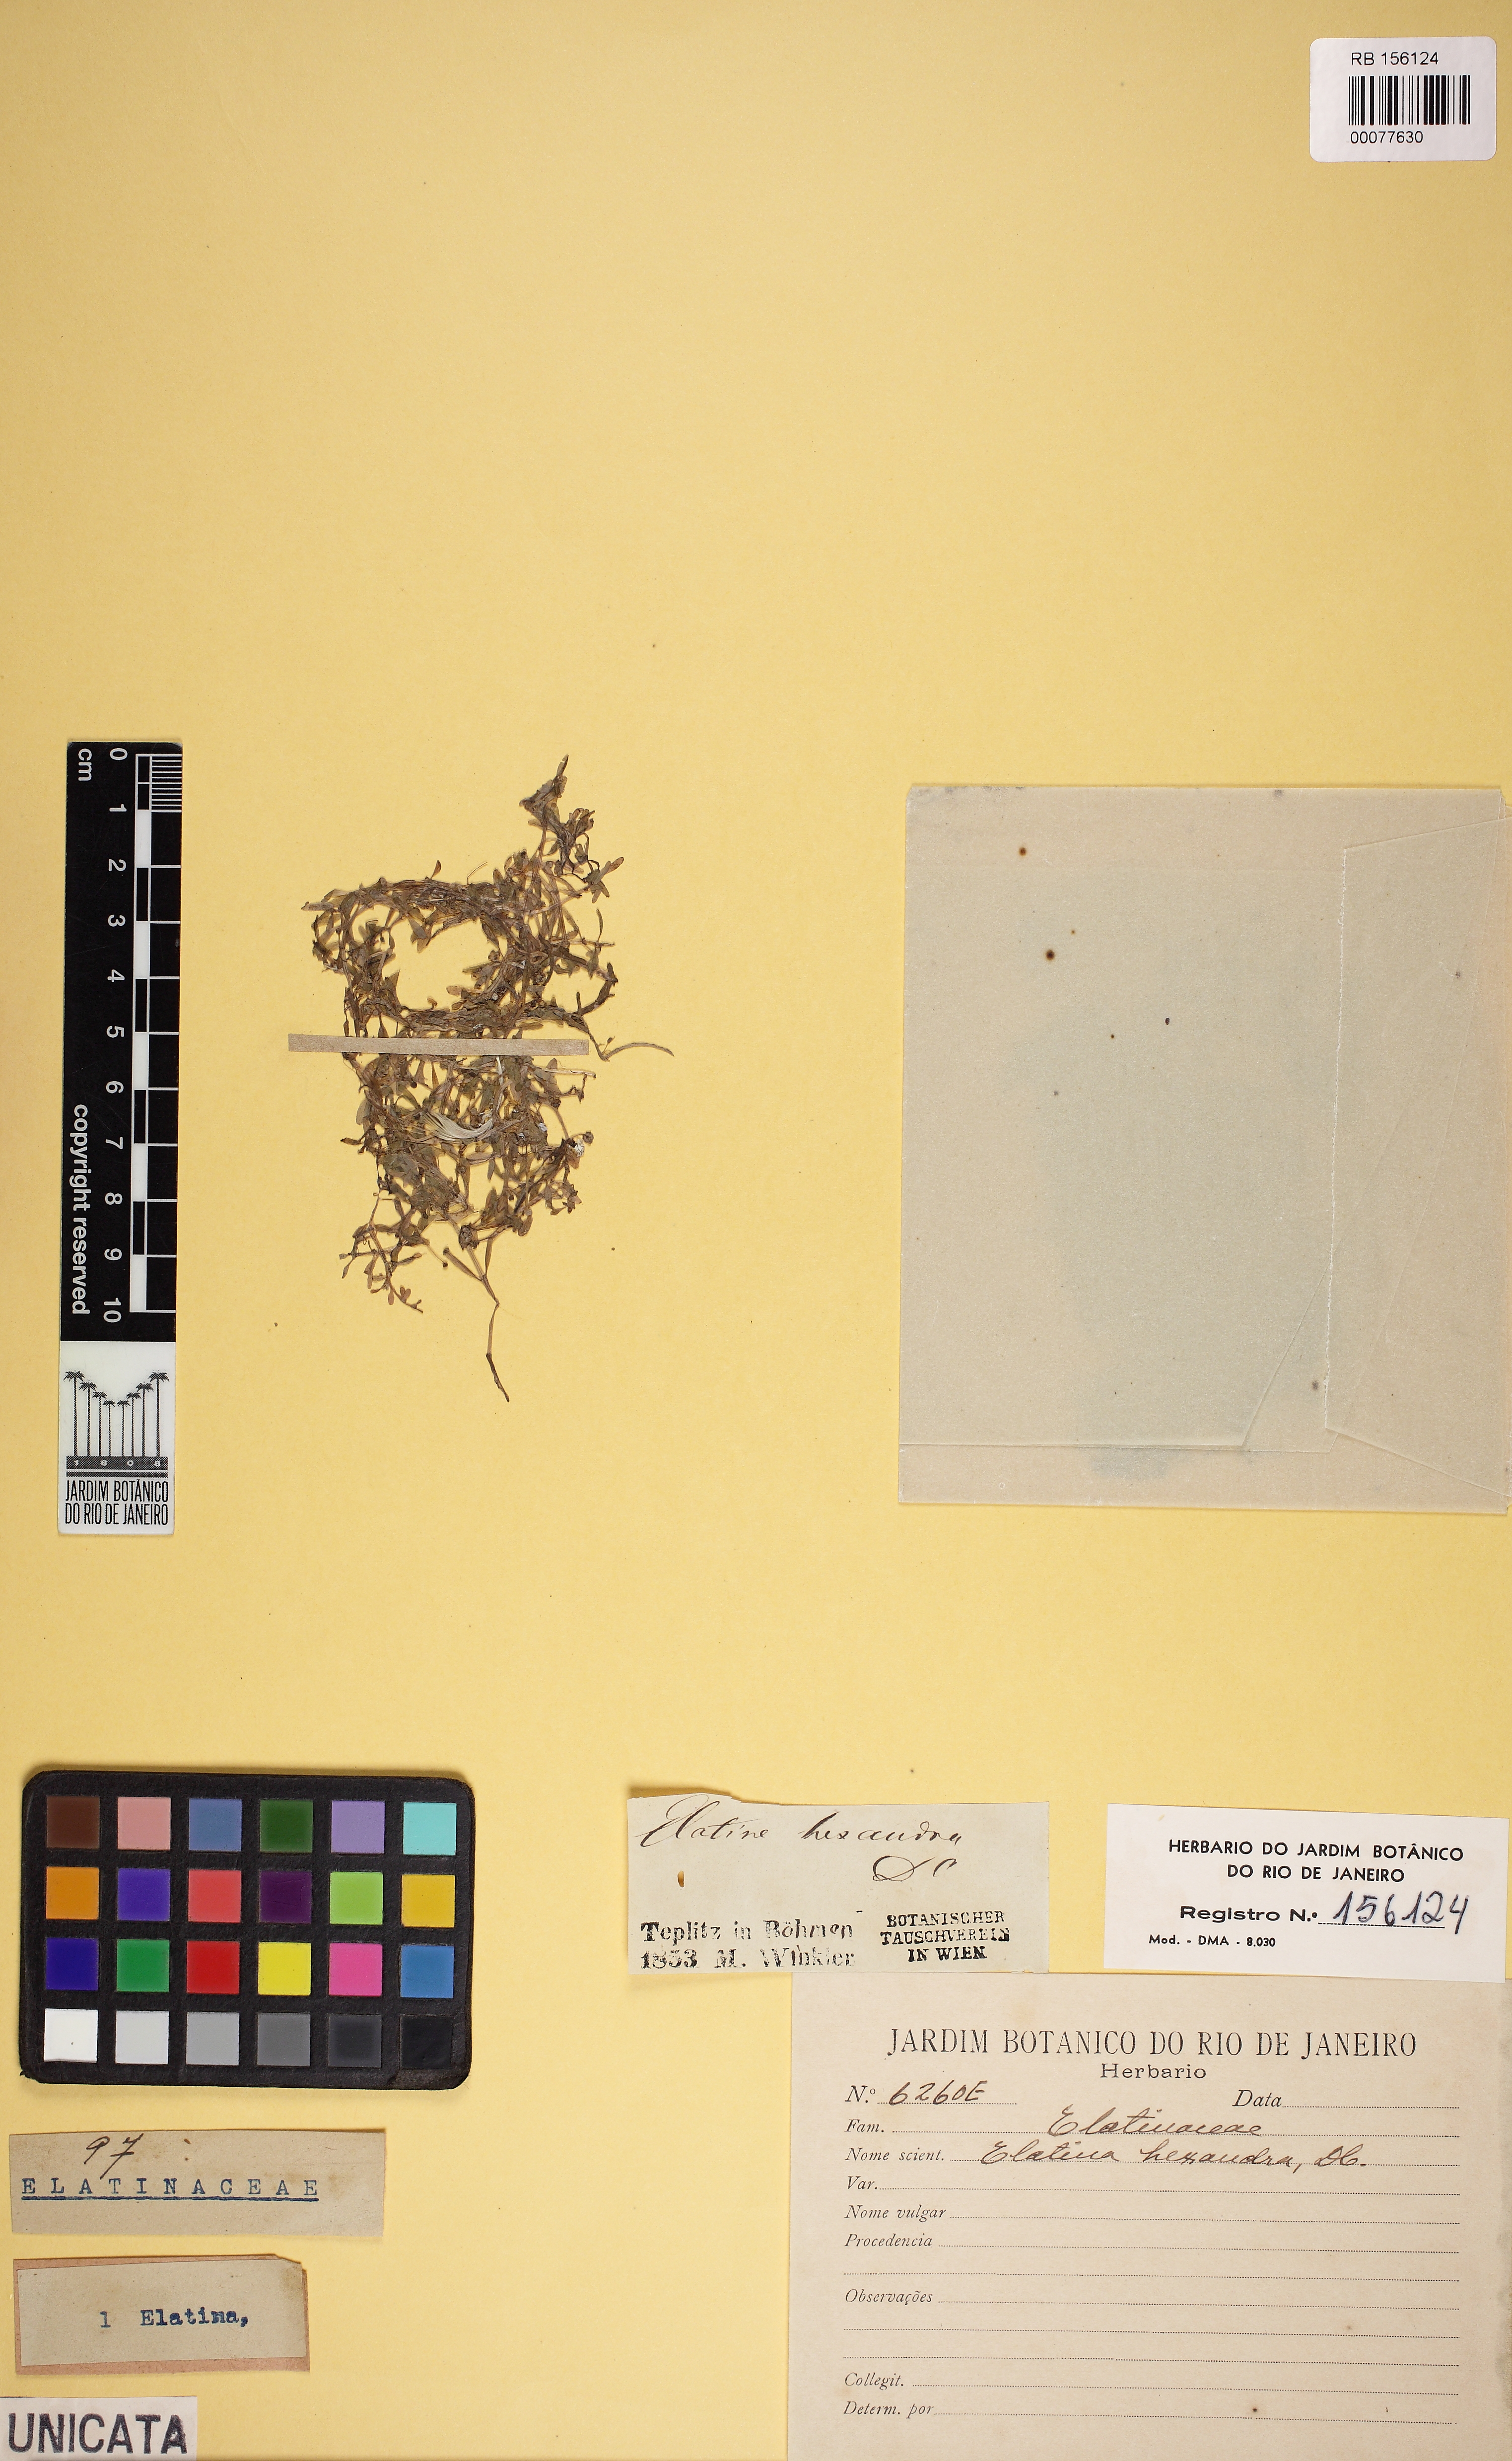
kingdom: Plantae
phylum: Tracheophyta
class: Magnoliopsida
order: Malpighiales
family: Elatinaceae
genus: Elatine
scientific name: Elatine hexandra
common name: Six-stamened waterwort
